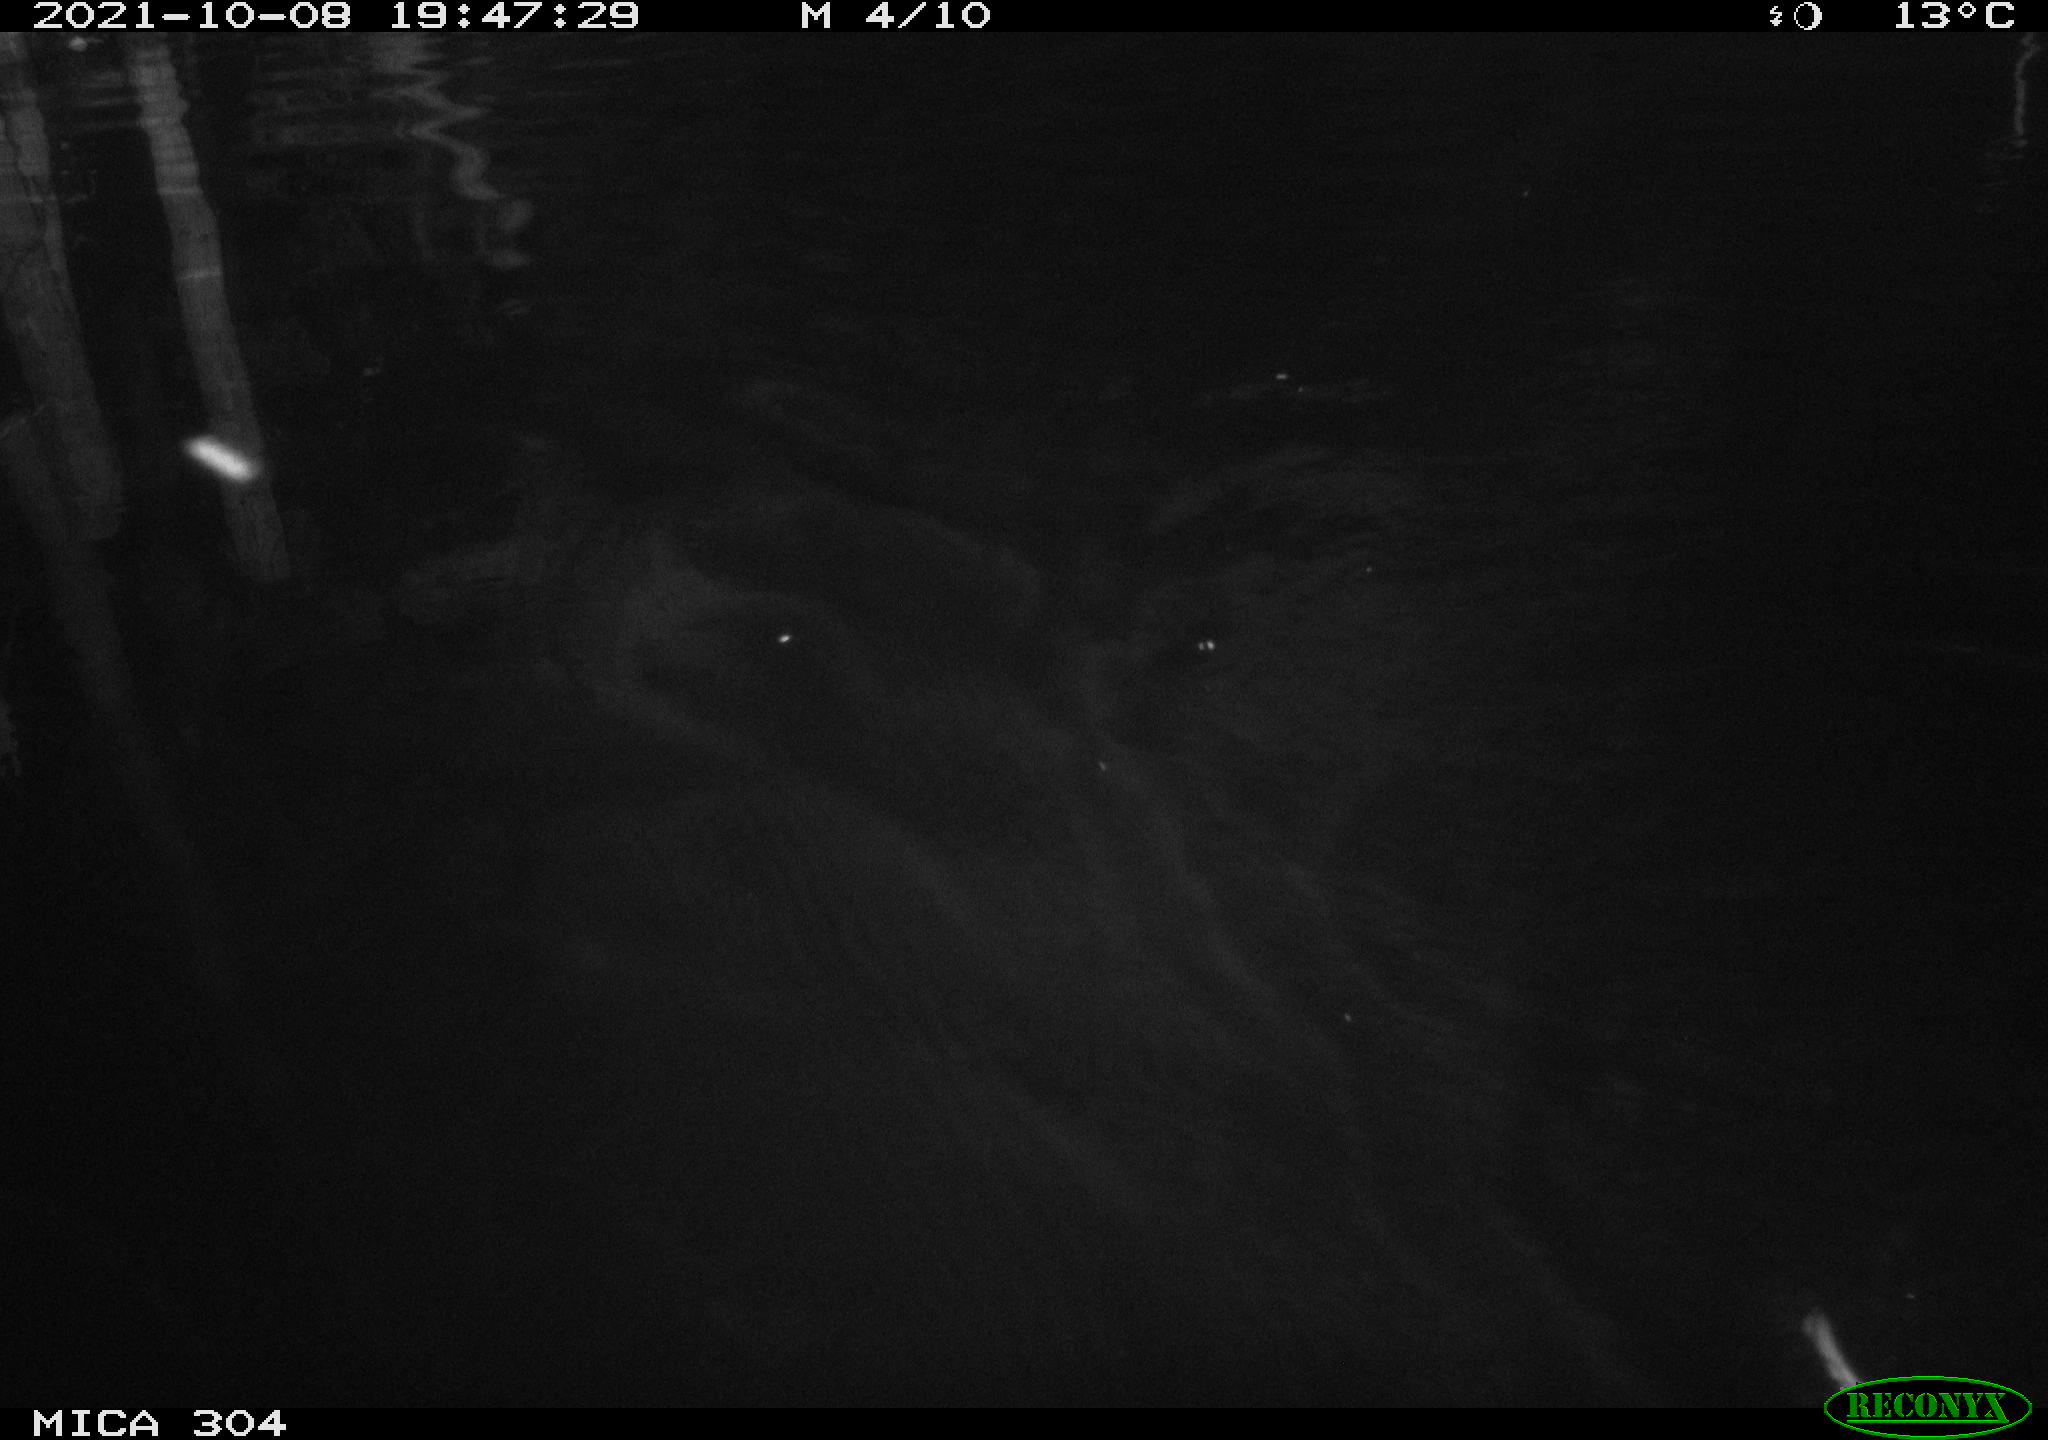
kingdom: Animalia
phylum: Chordata
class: Mammalia
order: Rodentia
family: Cricetidae
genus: Ondatra
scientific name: Ondatra zibethicus
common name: Muskrat
